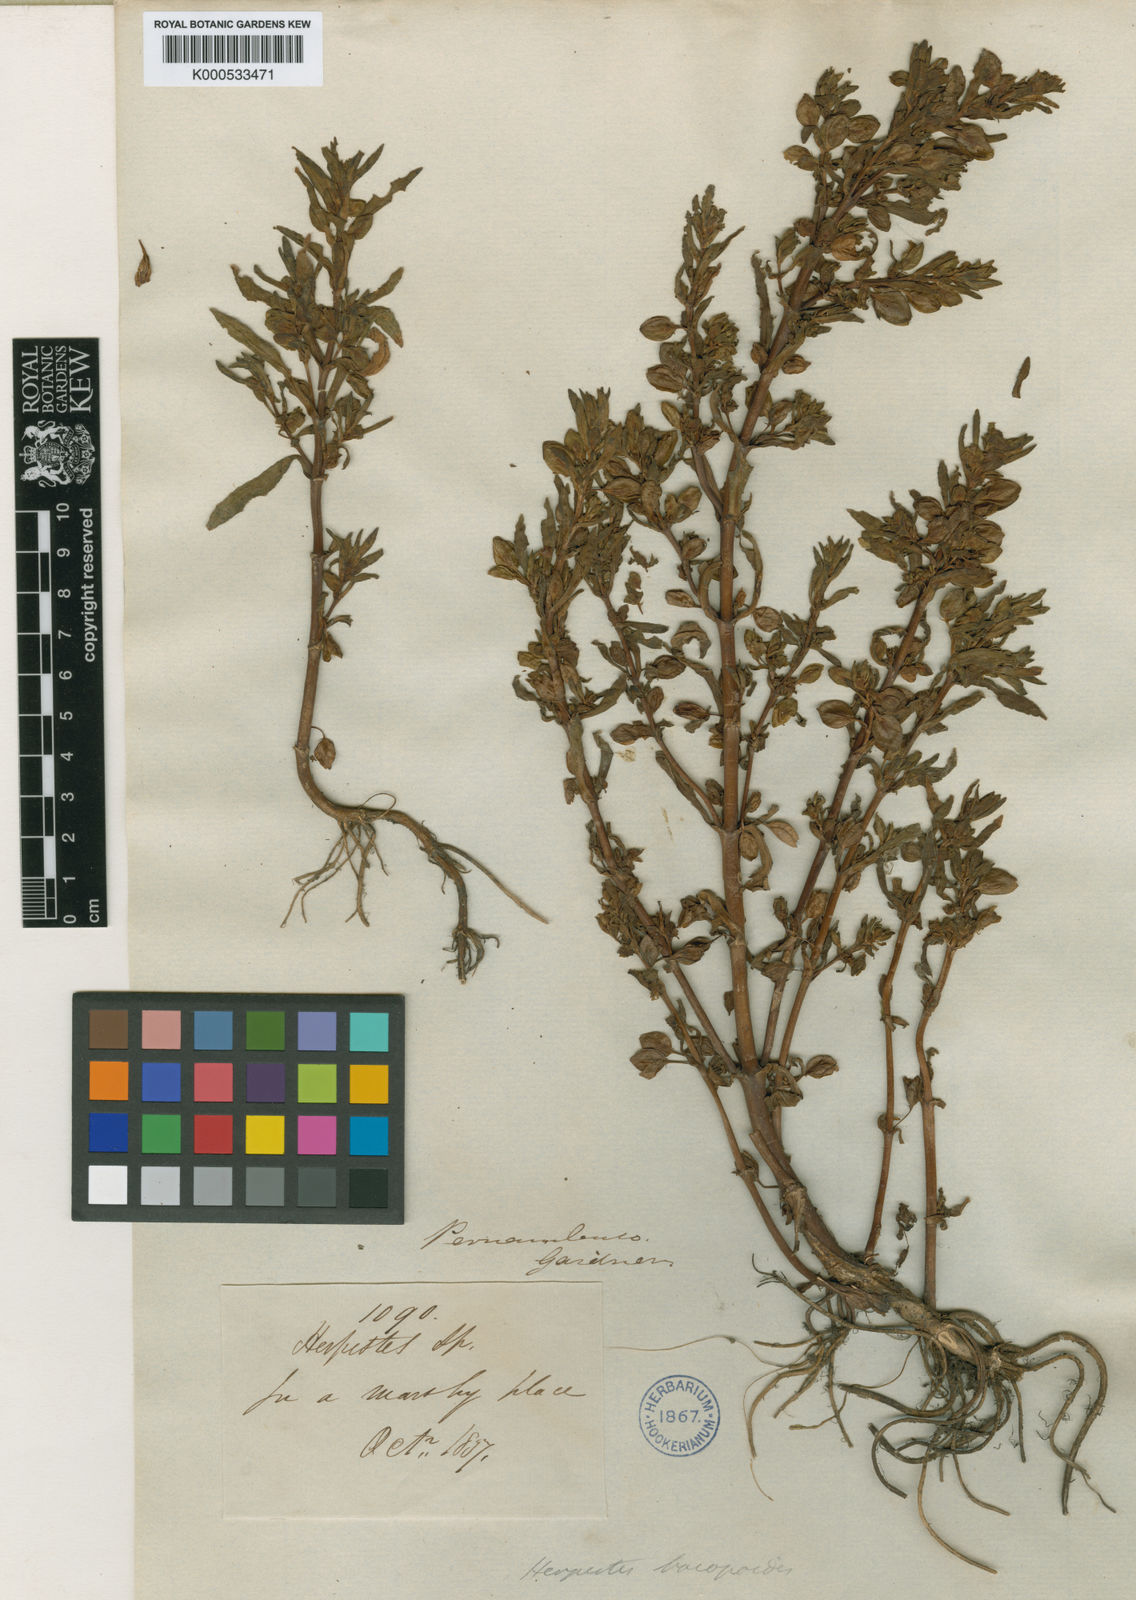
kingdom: Plantae
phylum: Tracheophyta
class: Magnoliopsida
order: Lamiales
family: Plantaginaceae
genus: Bacopa
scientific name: Bacopa aquatica
